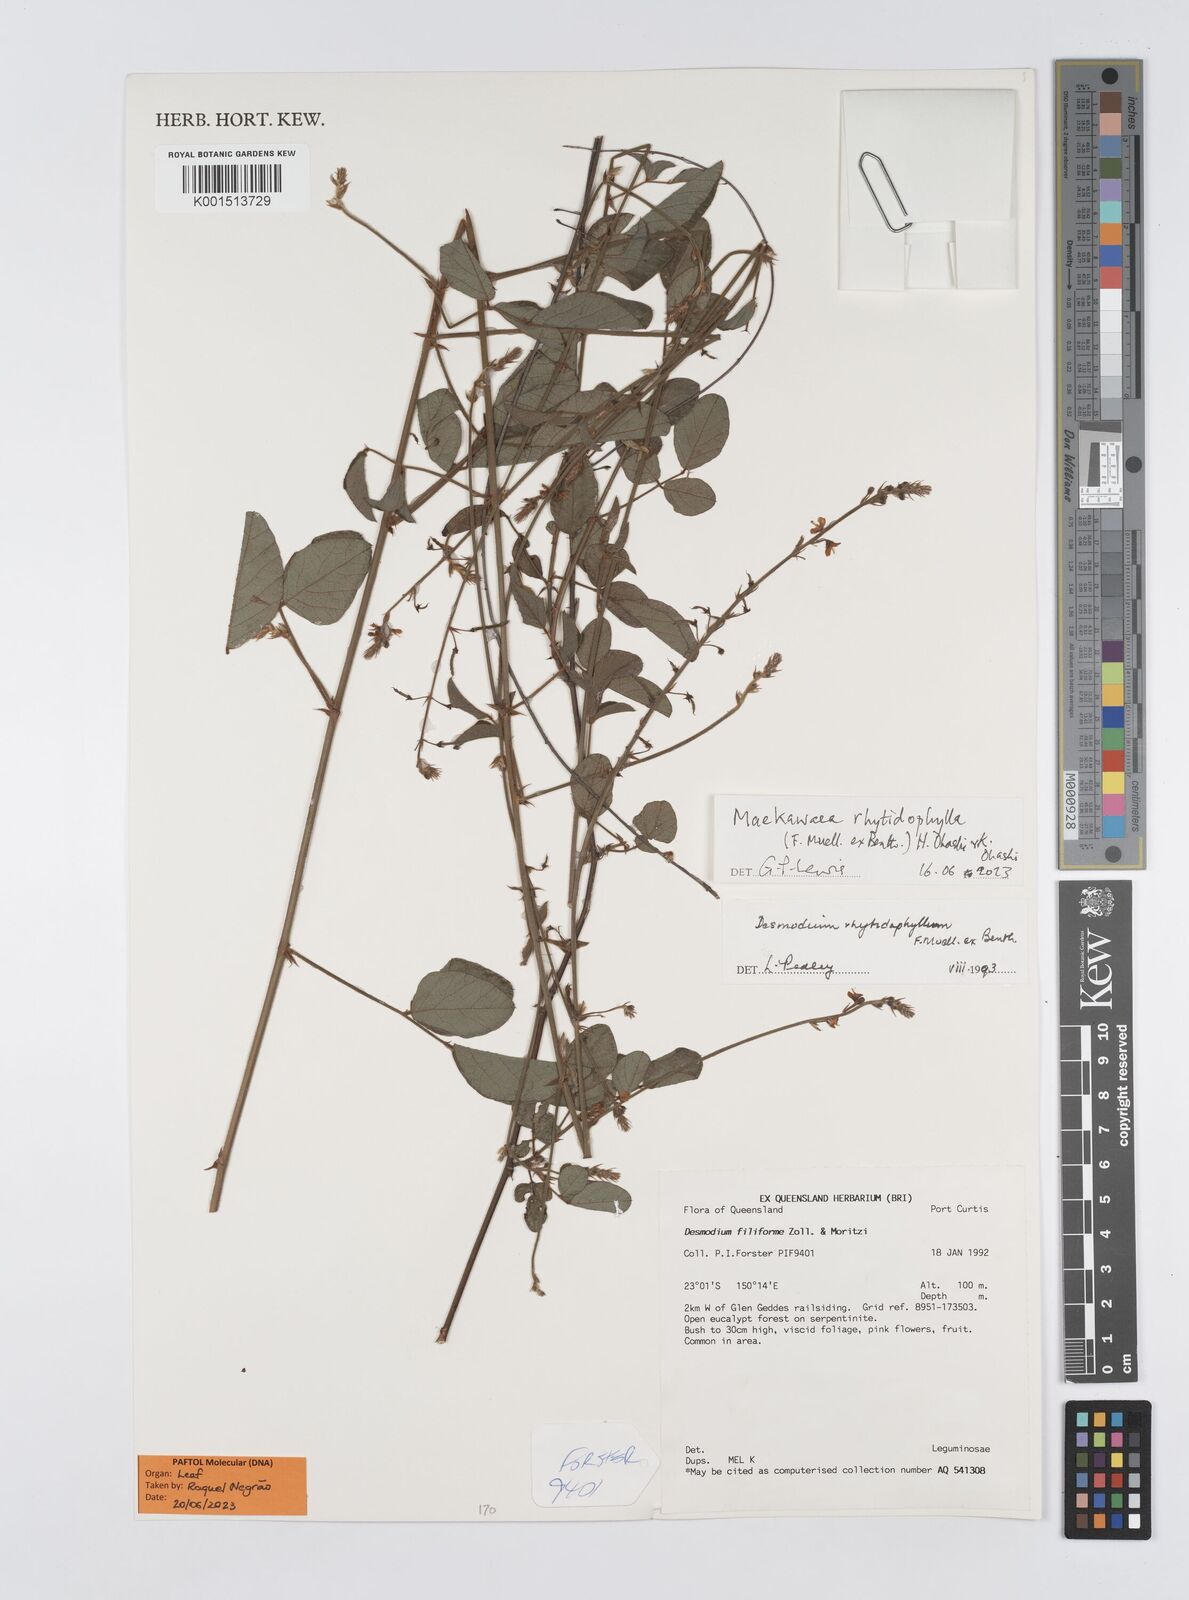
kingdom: Plantae
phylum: Tracheophyta
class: Magnoliopsida
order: Fabales
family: Fabaceae
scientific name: Fabaceae
